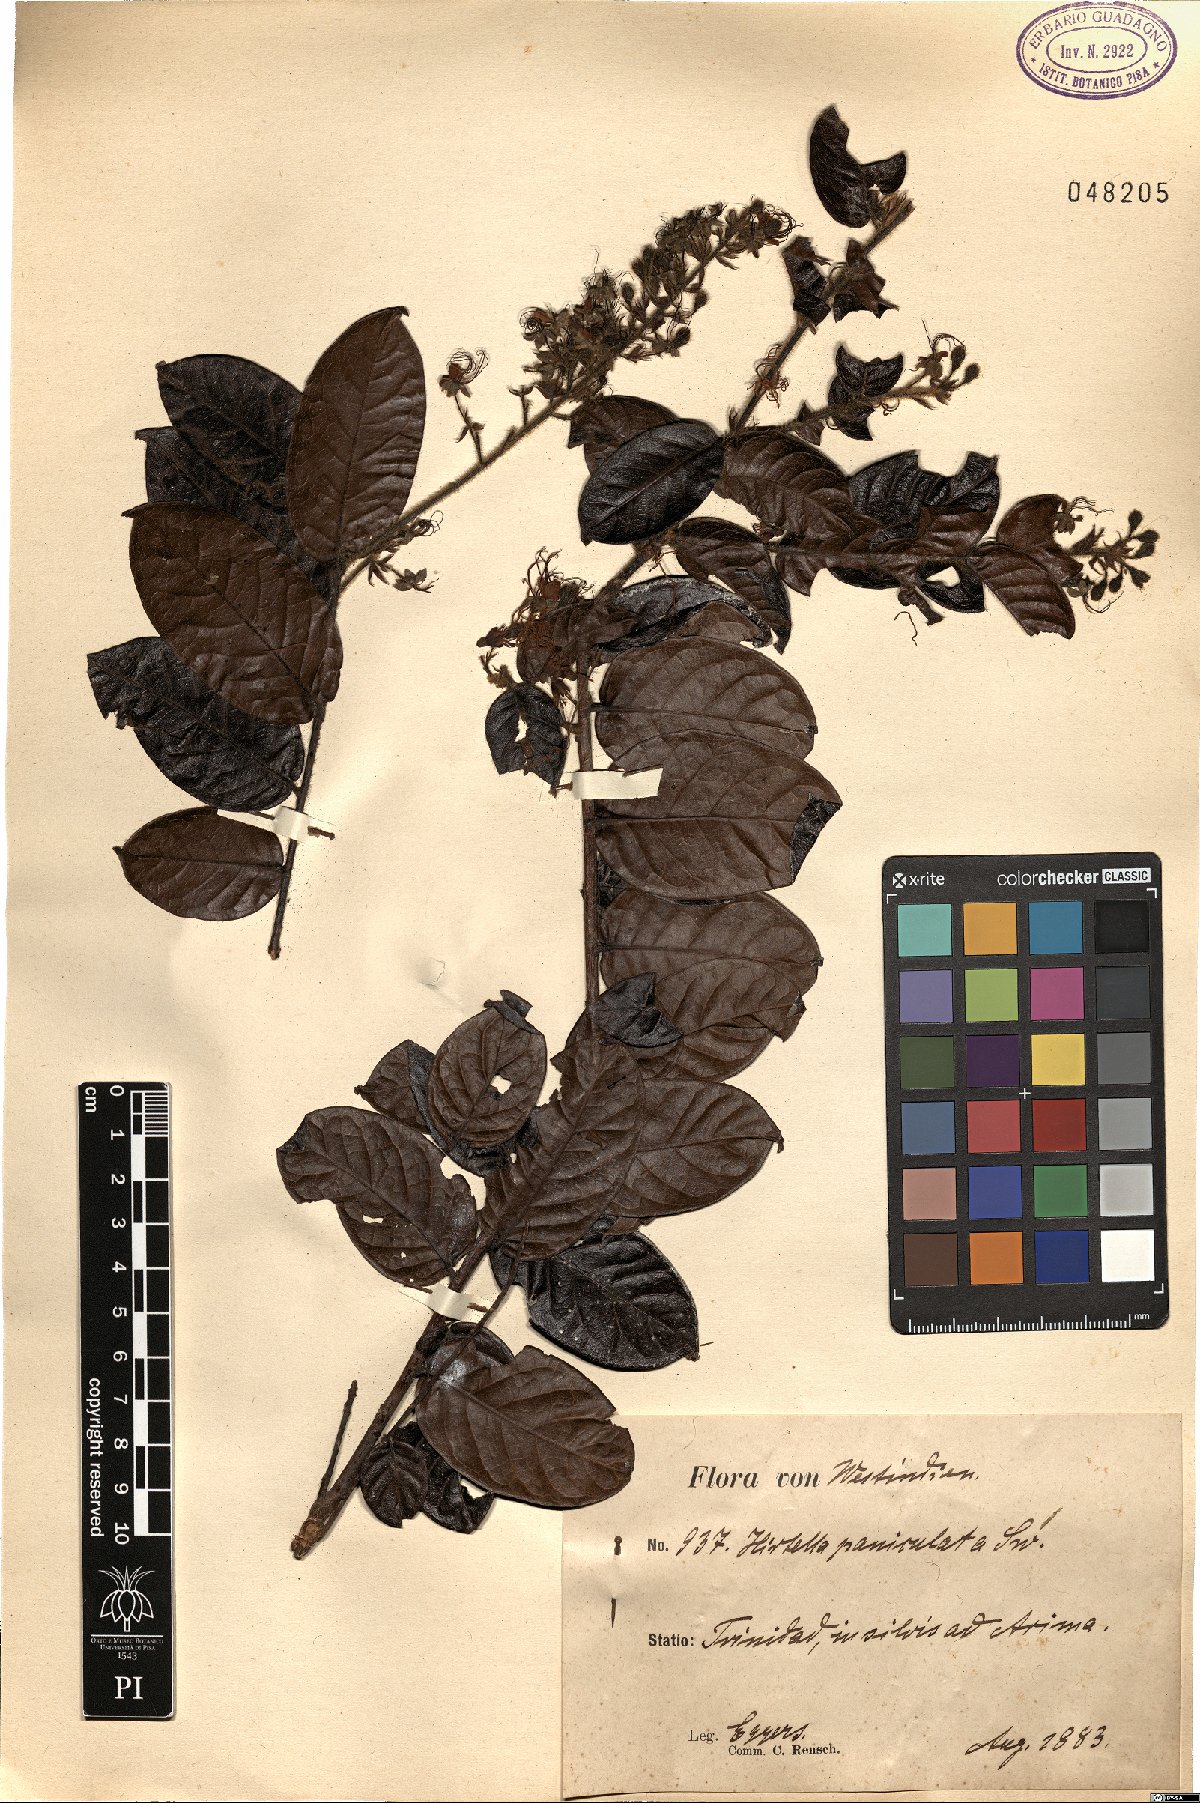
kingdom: Plantae
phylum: Tracheophyta
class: Magnoliopsida
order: Malpighiales
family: Chrysobalanaceae
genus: Hirtella
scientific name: Hirtella paniculata
